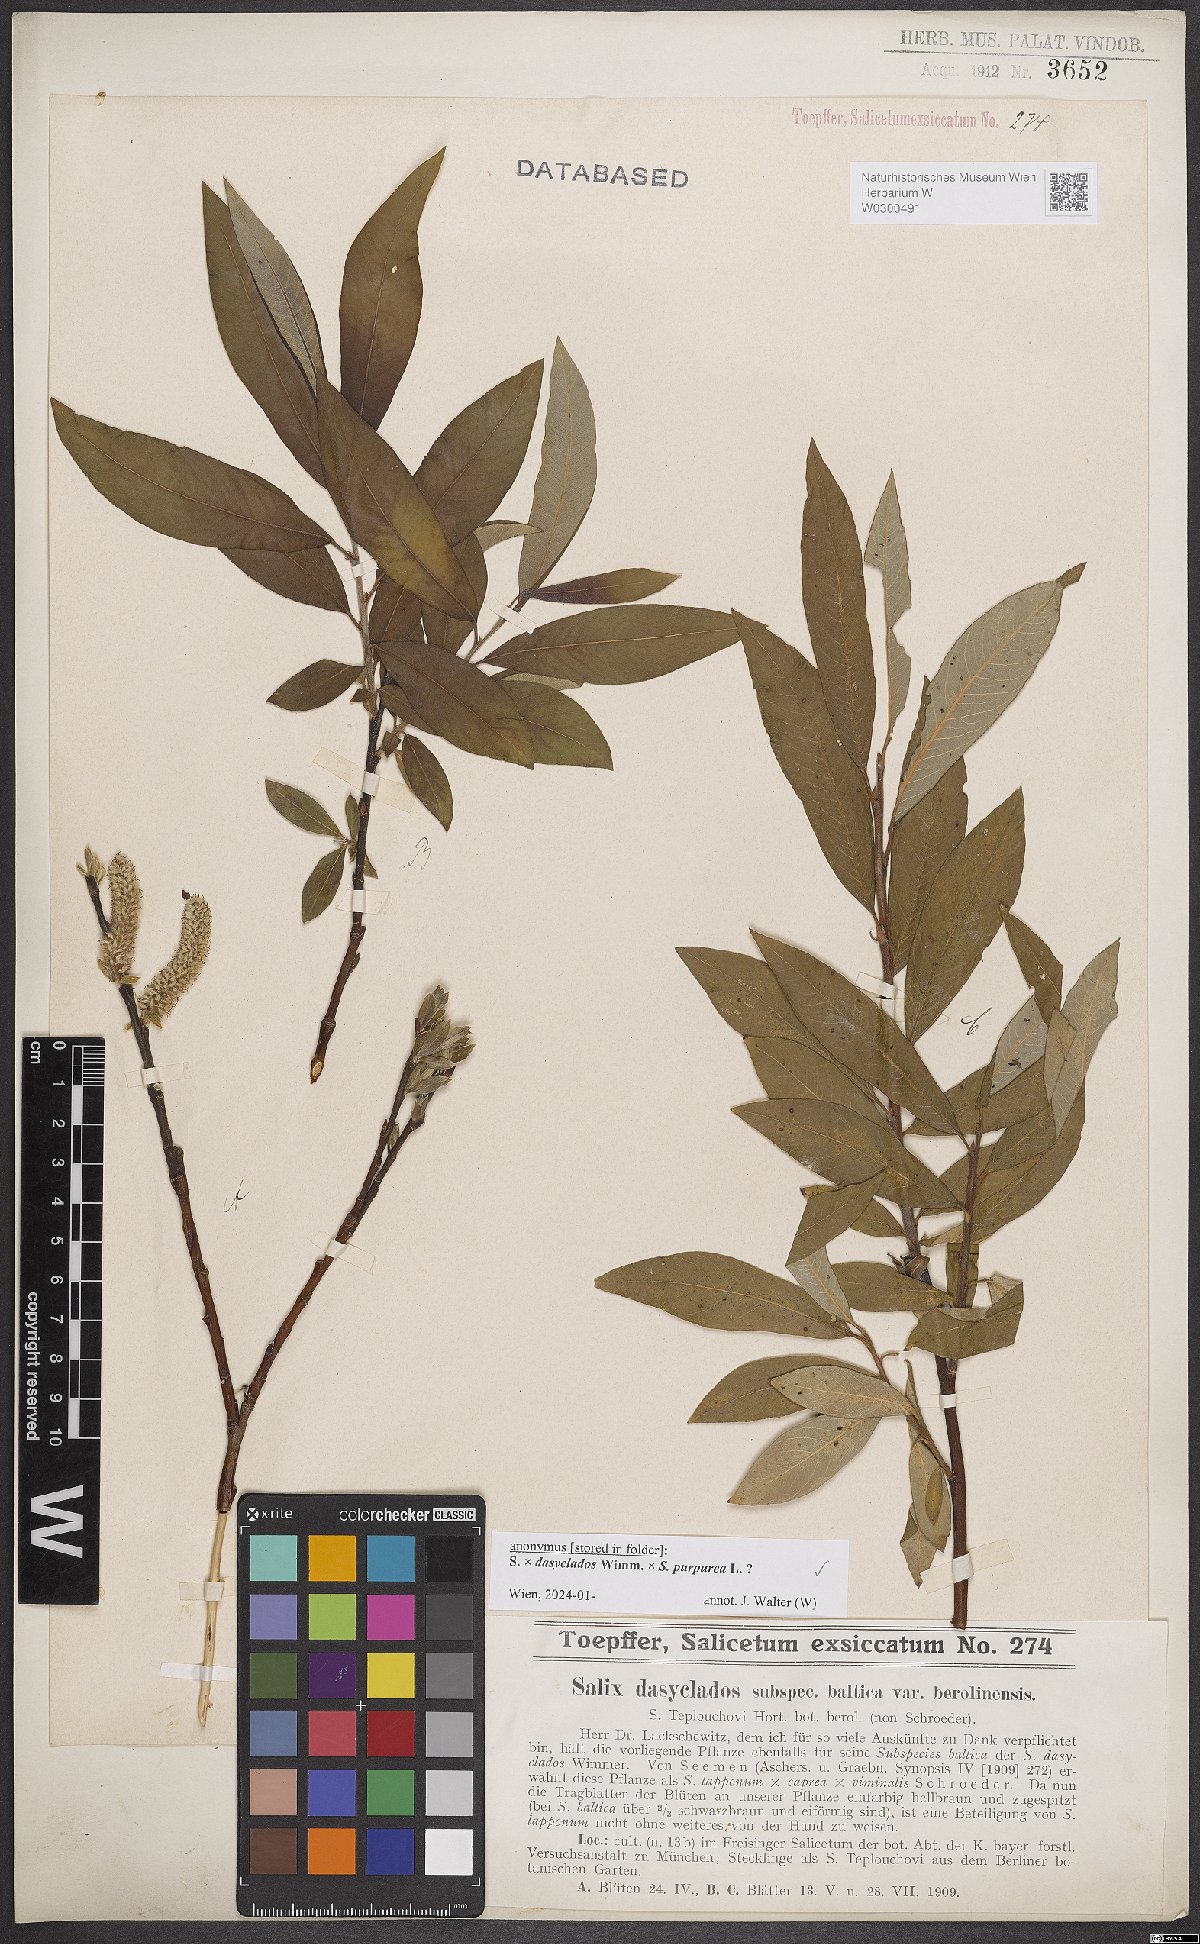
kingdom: Plantae
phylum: Tracheophyta
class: Magnoliopsida
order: Malpighiales
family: Salicaceae
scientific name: Salicaceae
